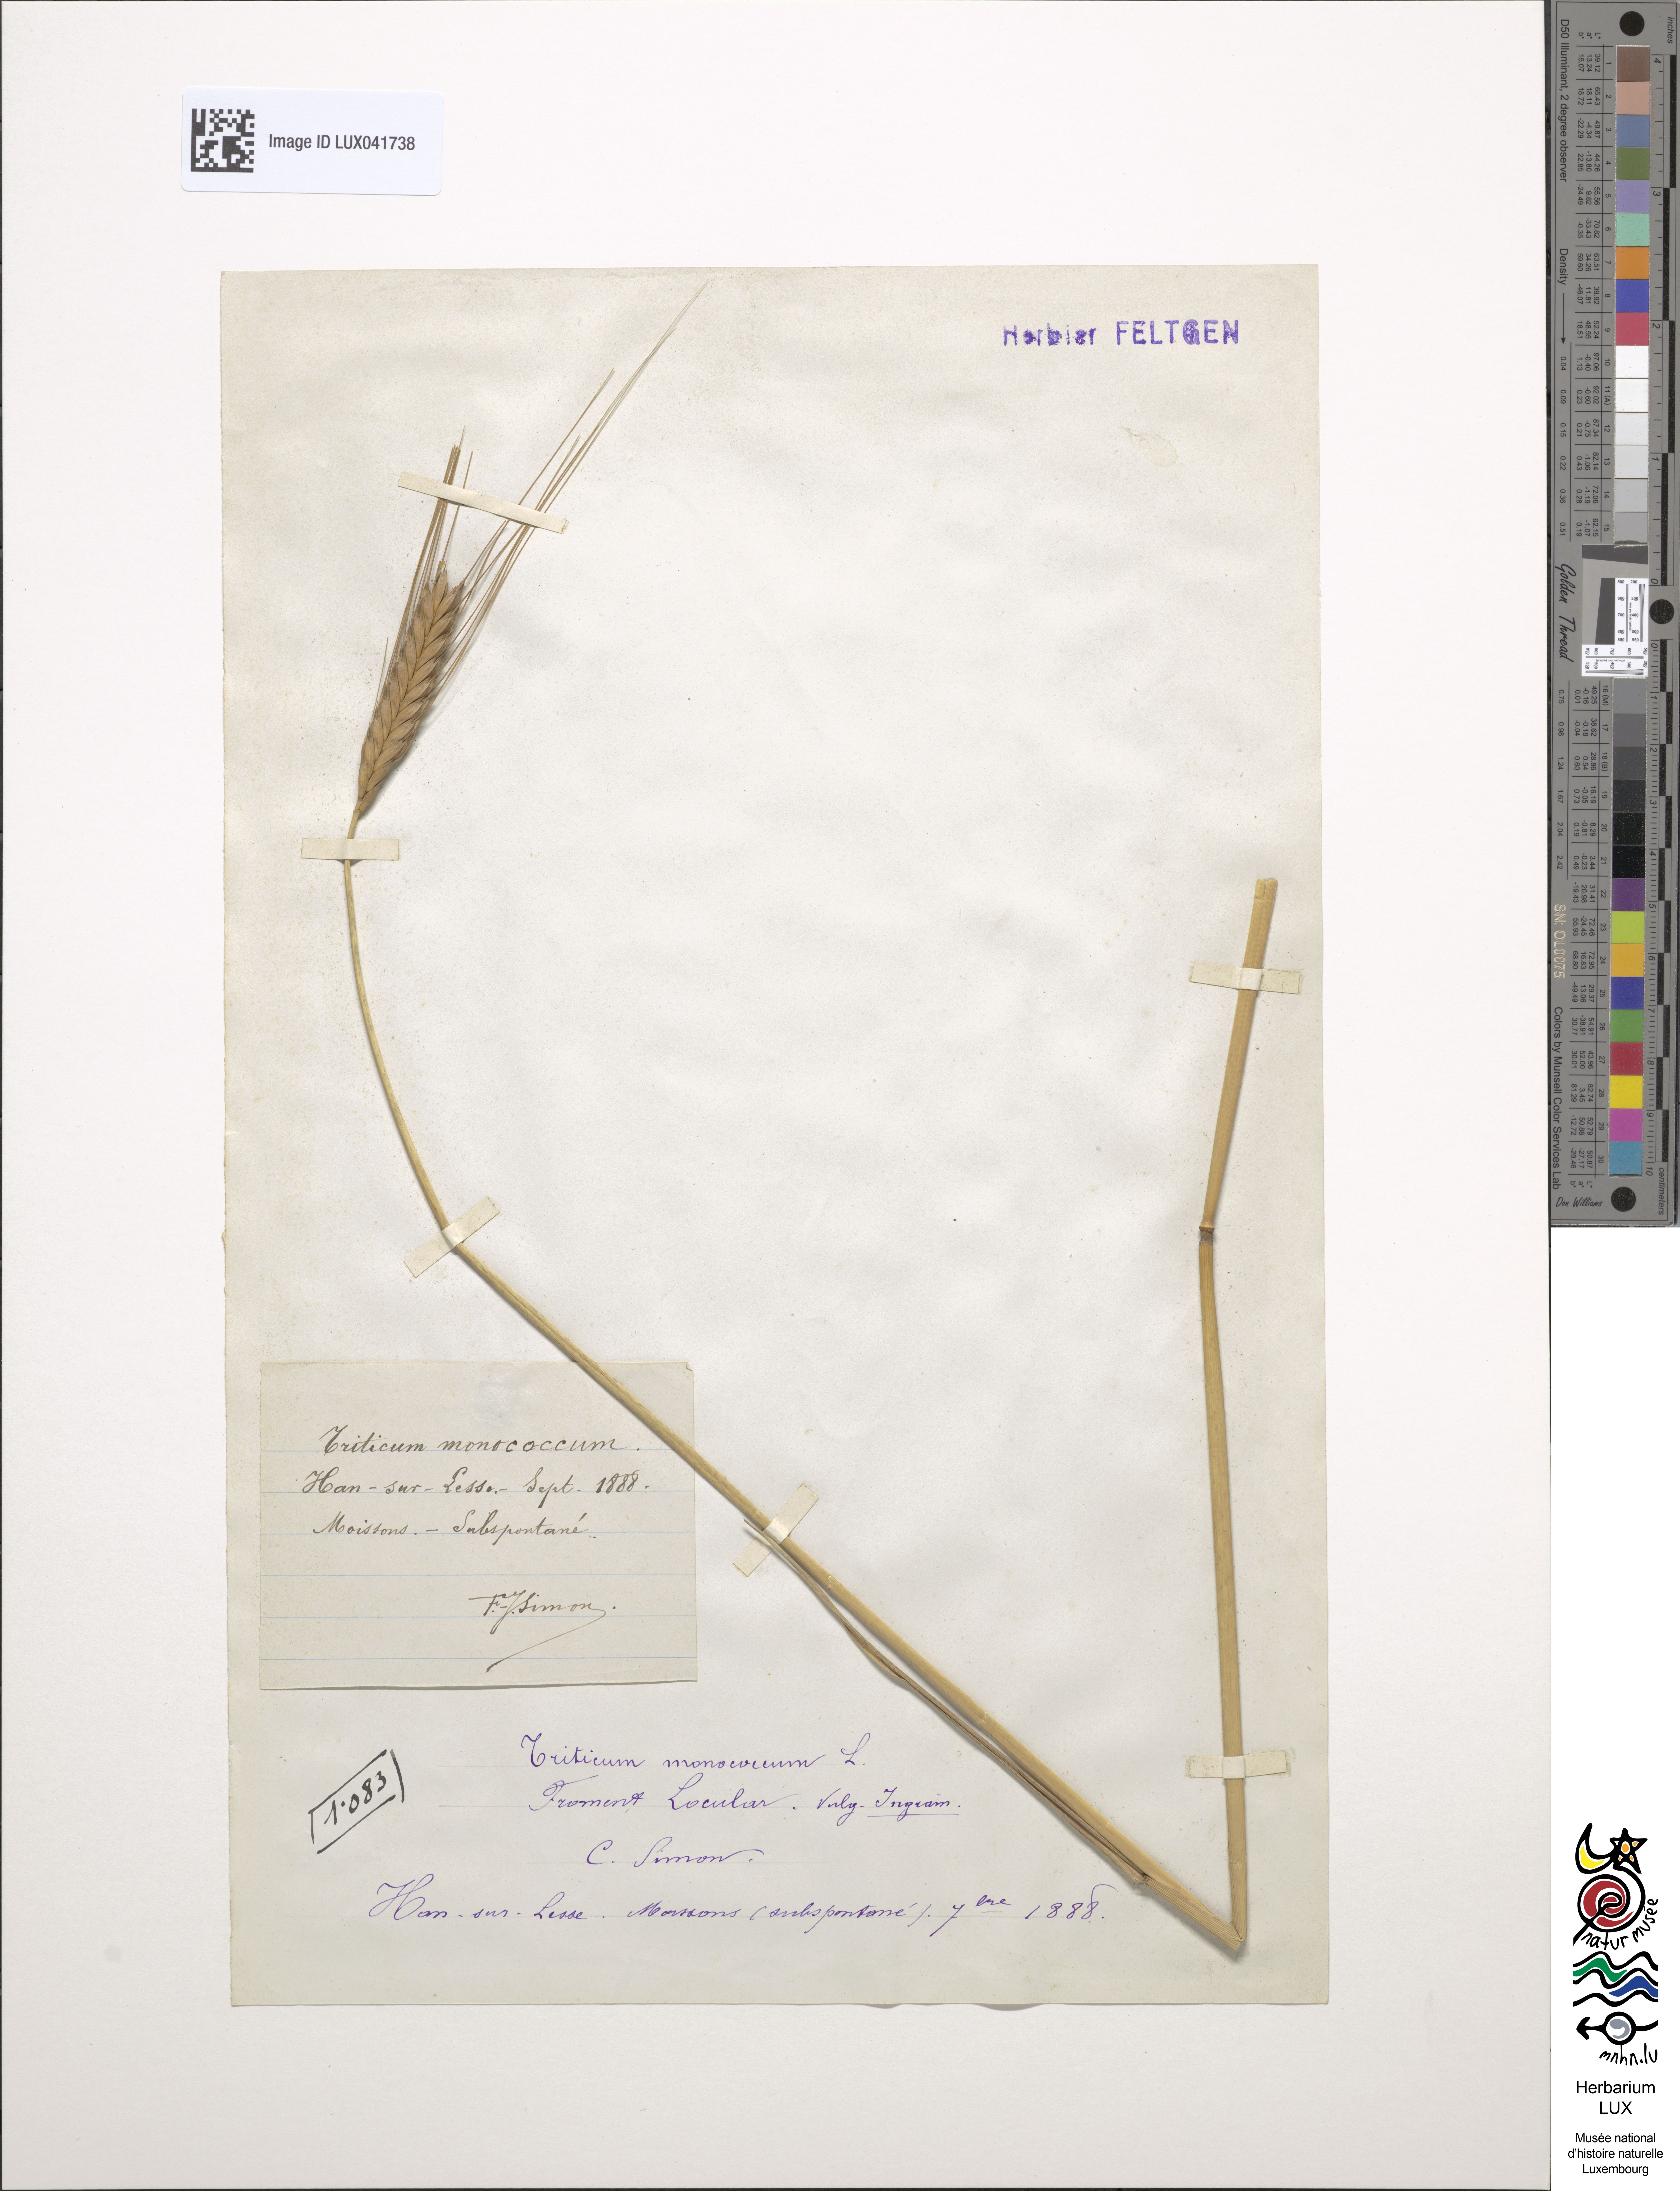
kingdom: Plantae
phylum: Tracheophyta
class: Liliopsida
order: Poales
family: Poaceae
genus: Triticum
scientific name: Triticum monococcum
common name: Einkorn
